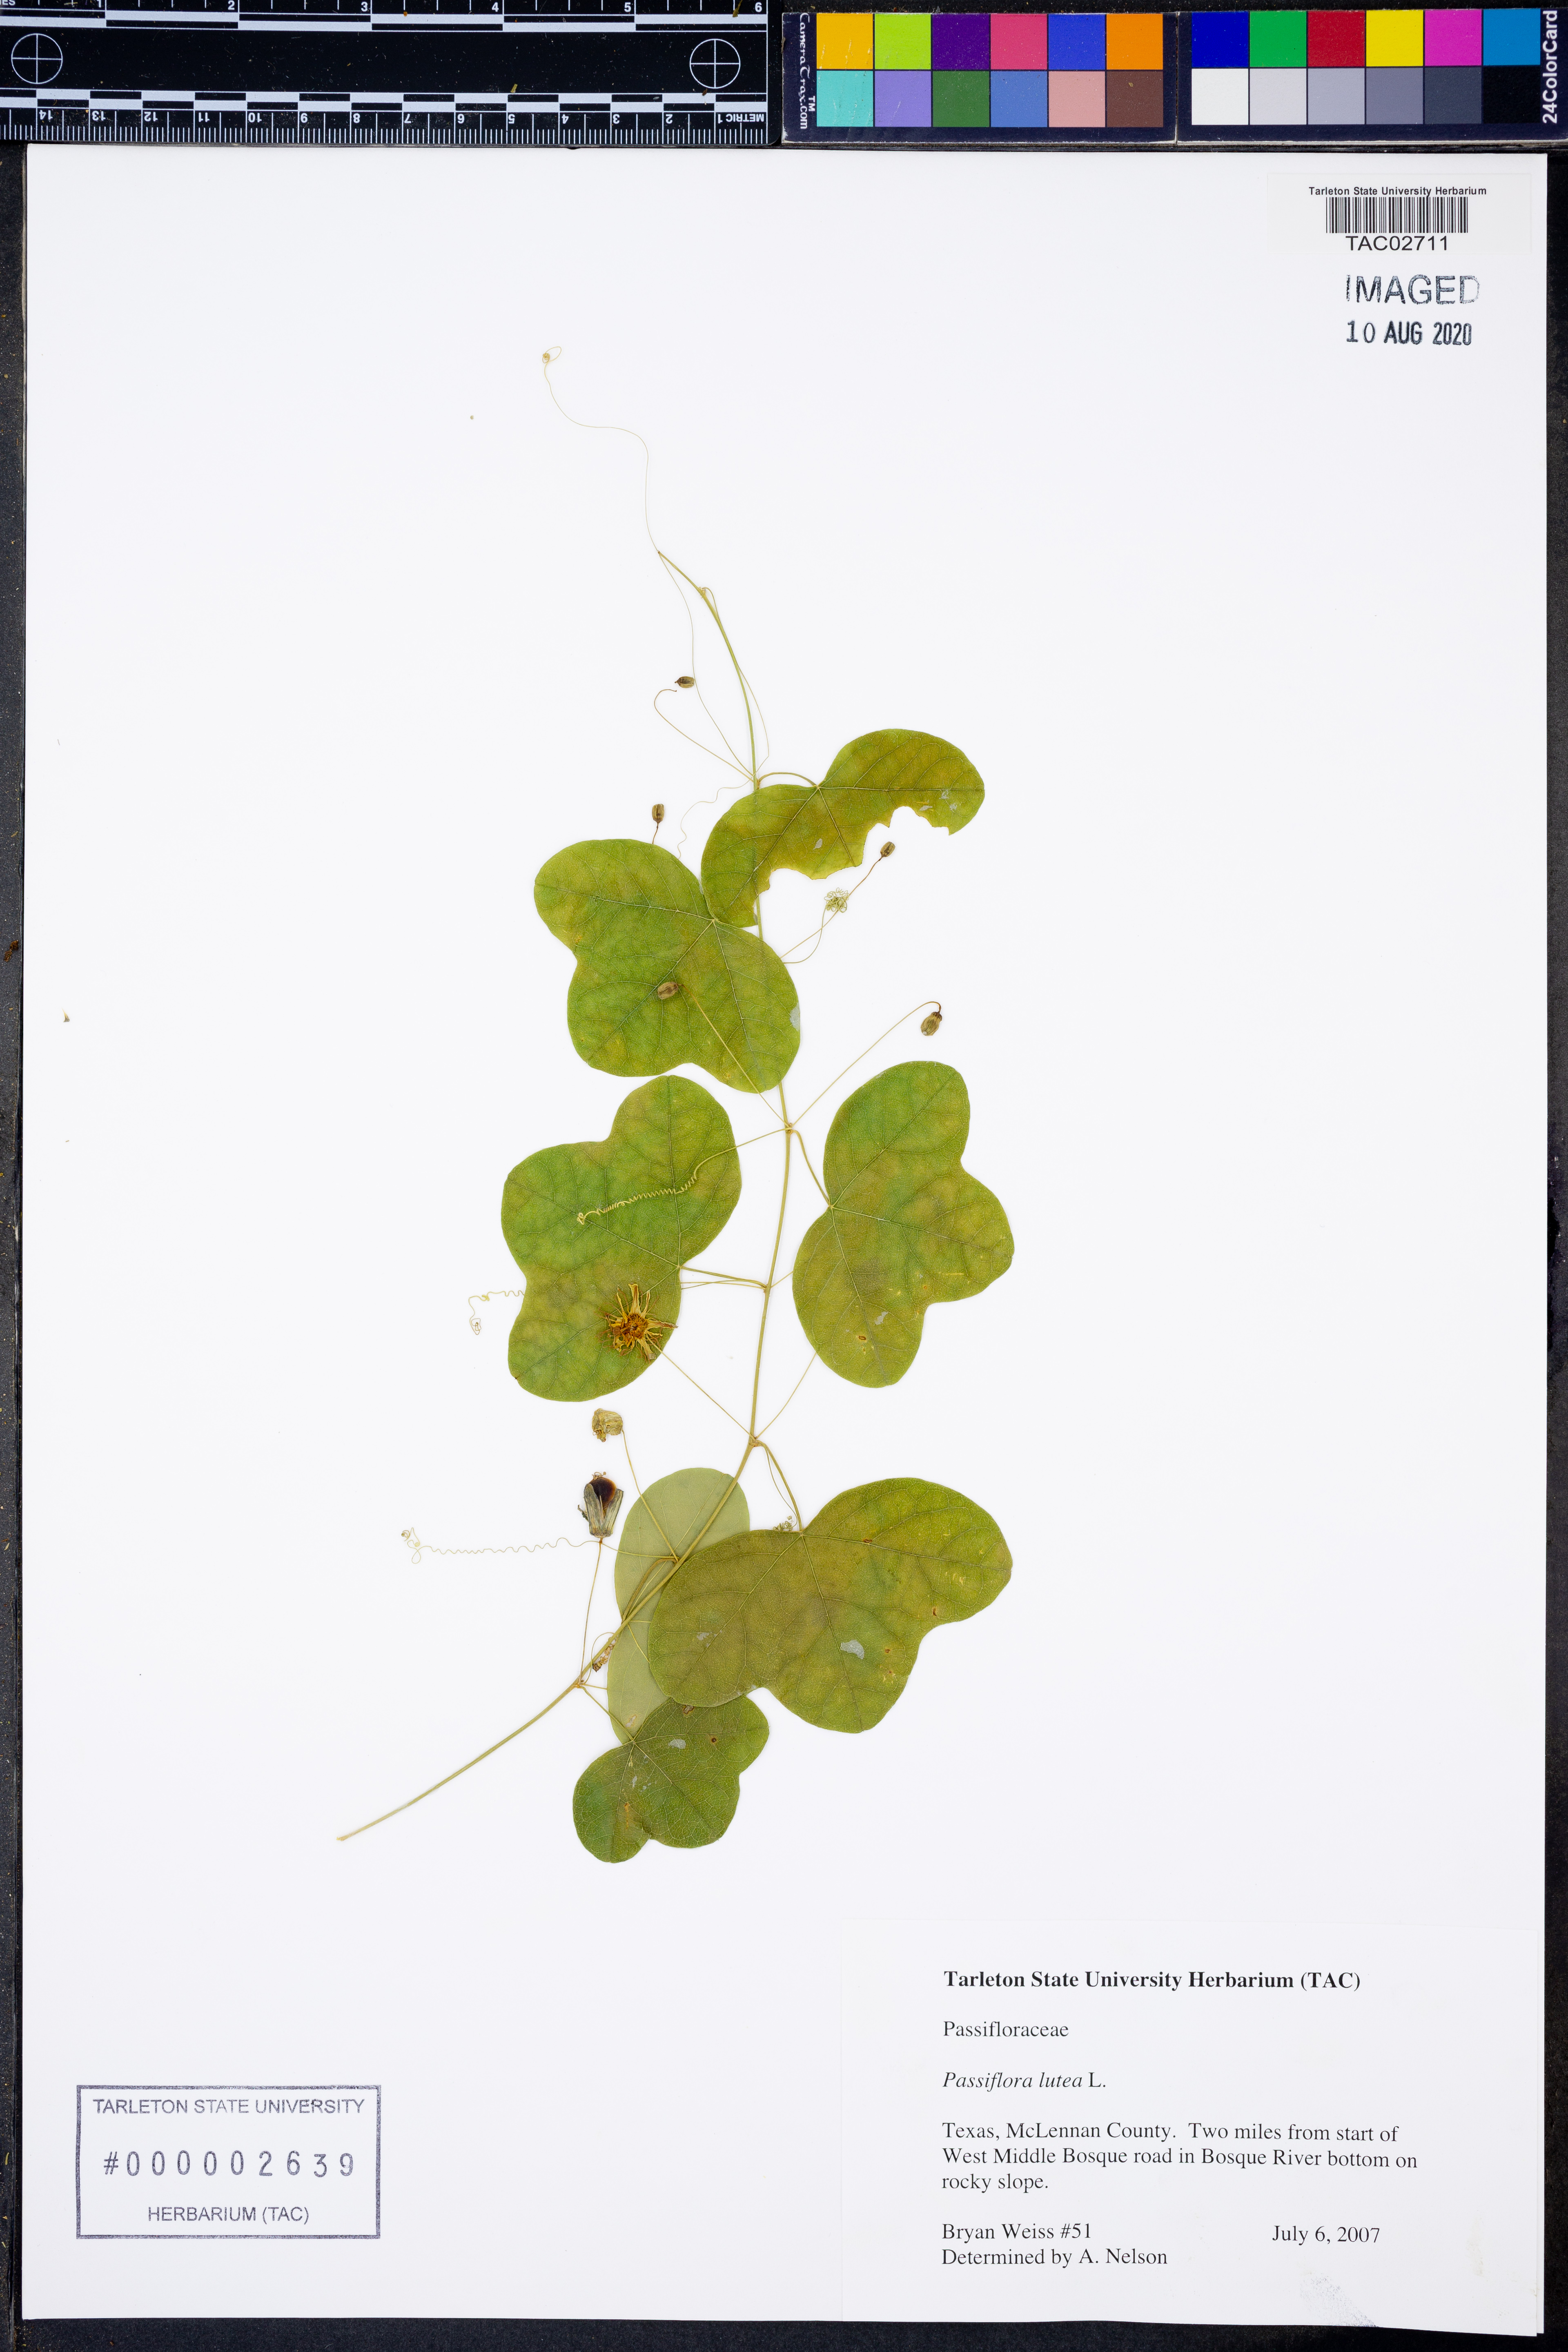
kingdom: Plantae
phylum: Tracheophyta
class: Magnoliopsida
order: Malpighiales
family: Passifloraceae
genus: Passiflora
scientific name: Passiflora lutea
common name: Yellow passionflower
